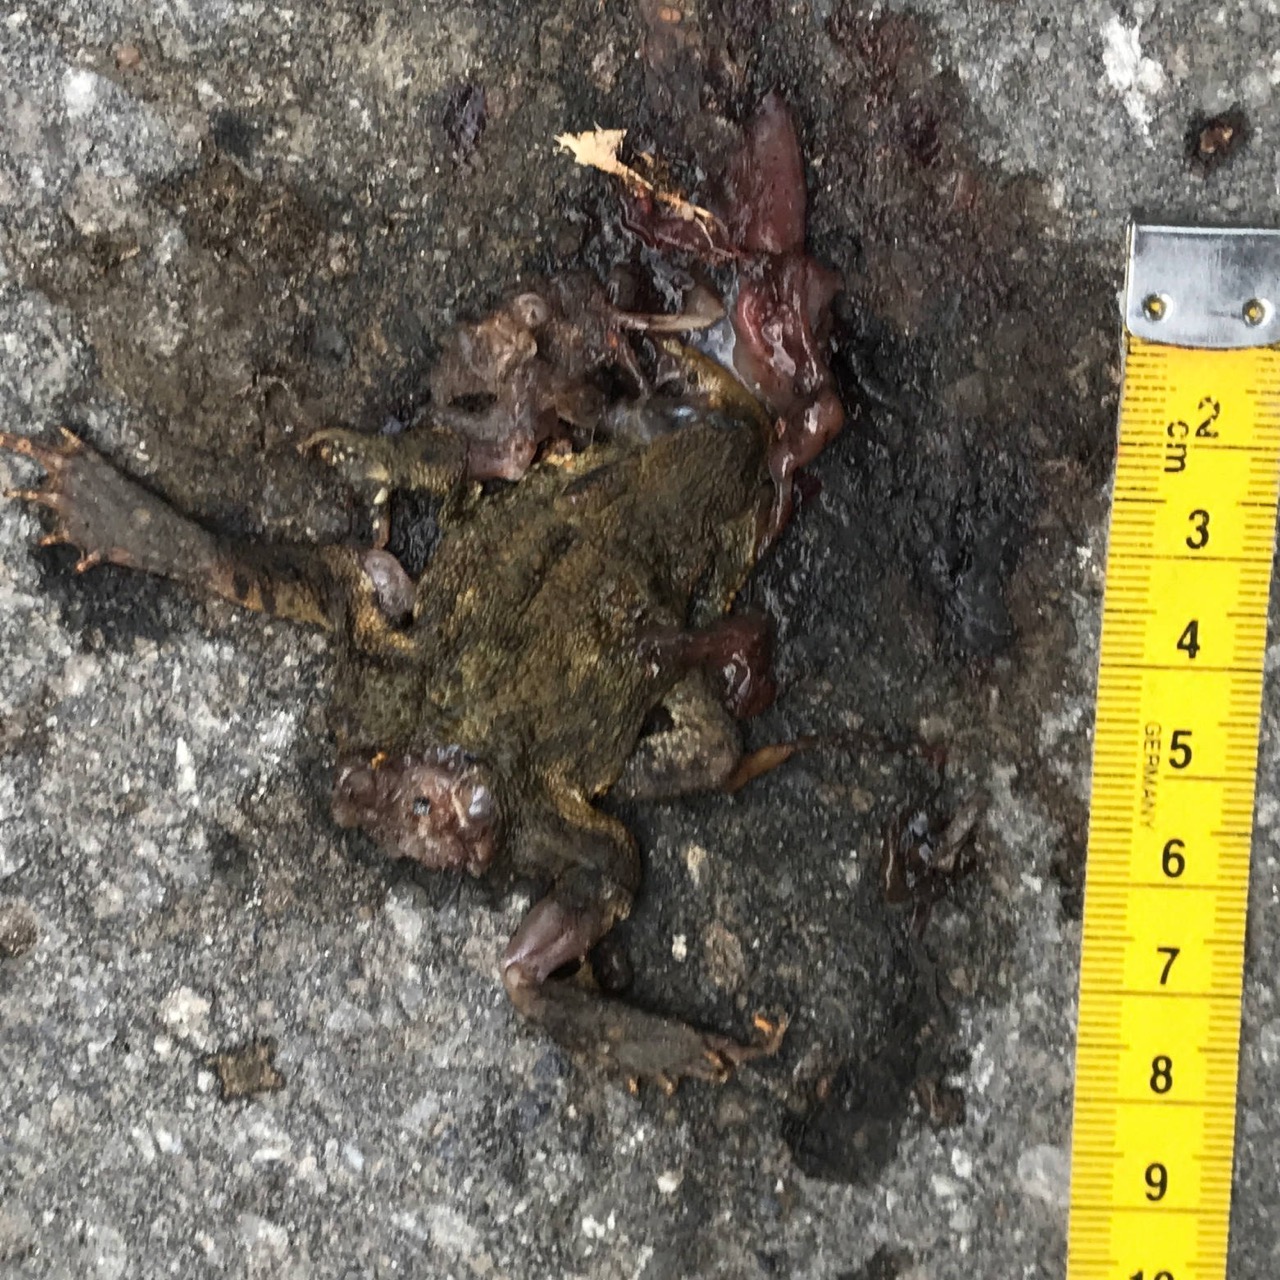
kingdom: Animalia
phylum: Chordata
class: Amphibia
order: Anura
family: Bufonidae
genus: Bufo
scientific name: Bufo bufo
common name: Common toad
